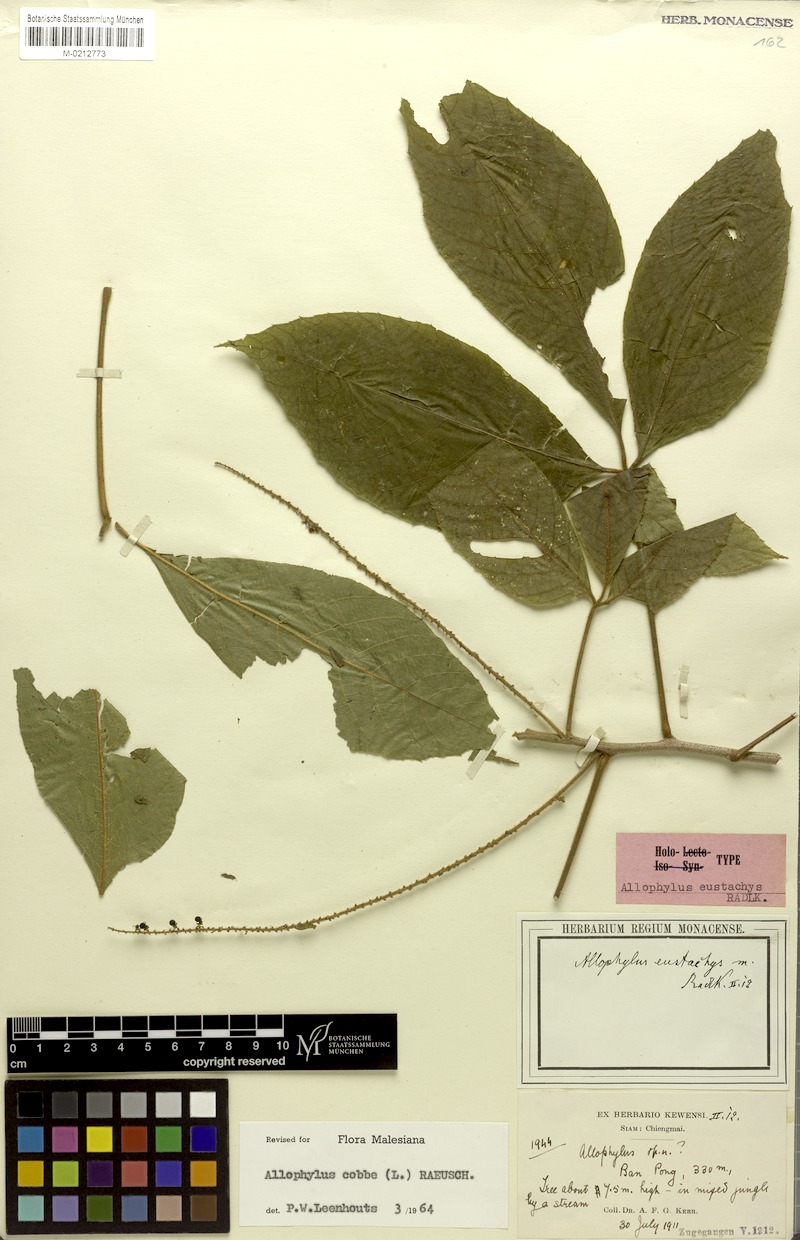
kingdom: Plantae
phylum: Tracheophyta
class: Magnoliopsida
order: Sapindales
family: Sapindaceae
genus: Allophylus
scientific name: Allophylus eustachys
